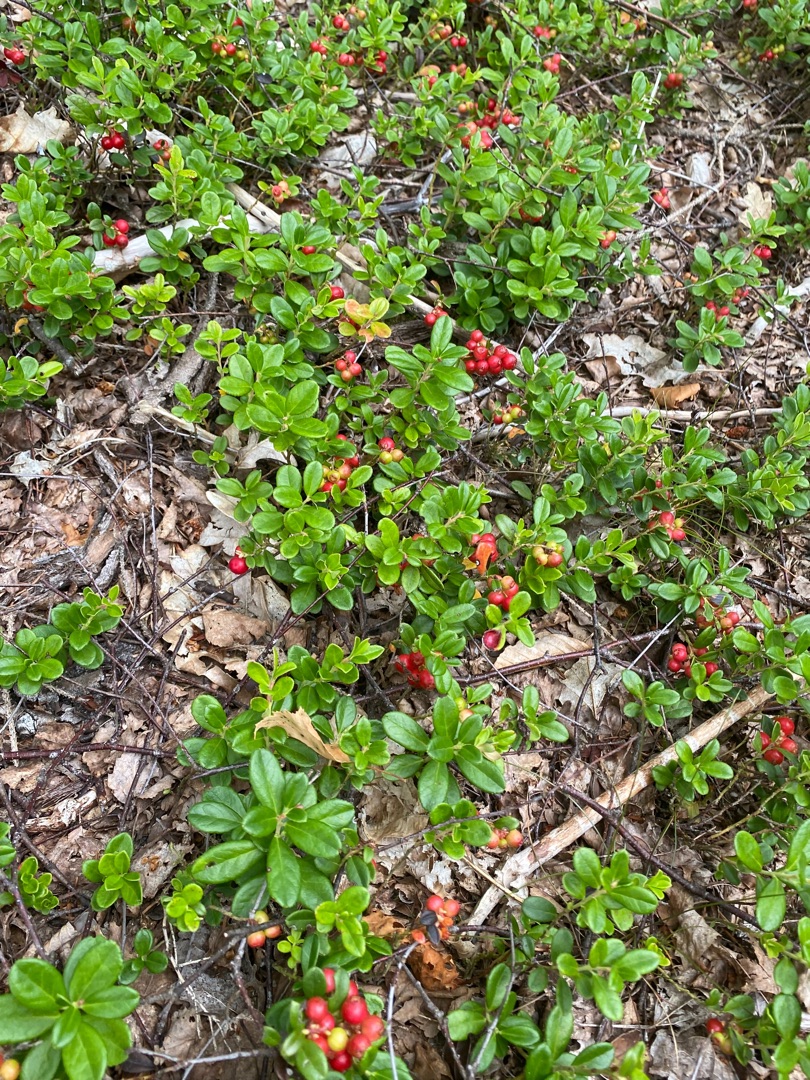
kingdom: Plantae
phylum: Tracheophyta
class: Magnoliopsida
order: Ericales
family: Ericaceae
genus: Vaccinium
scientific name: Vaccinium vitis-idaea
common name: Tyttebær
